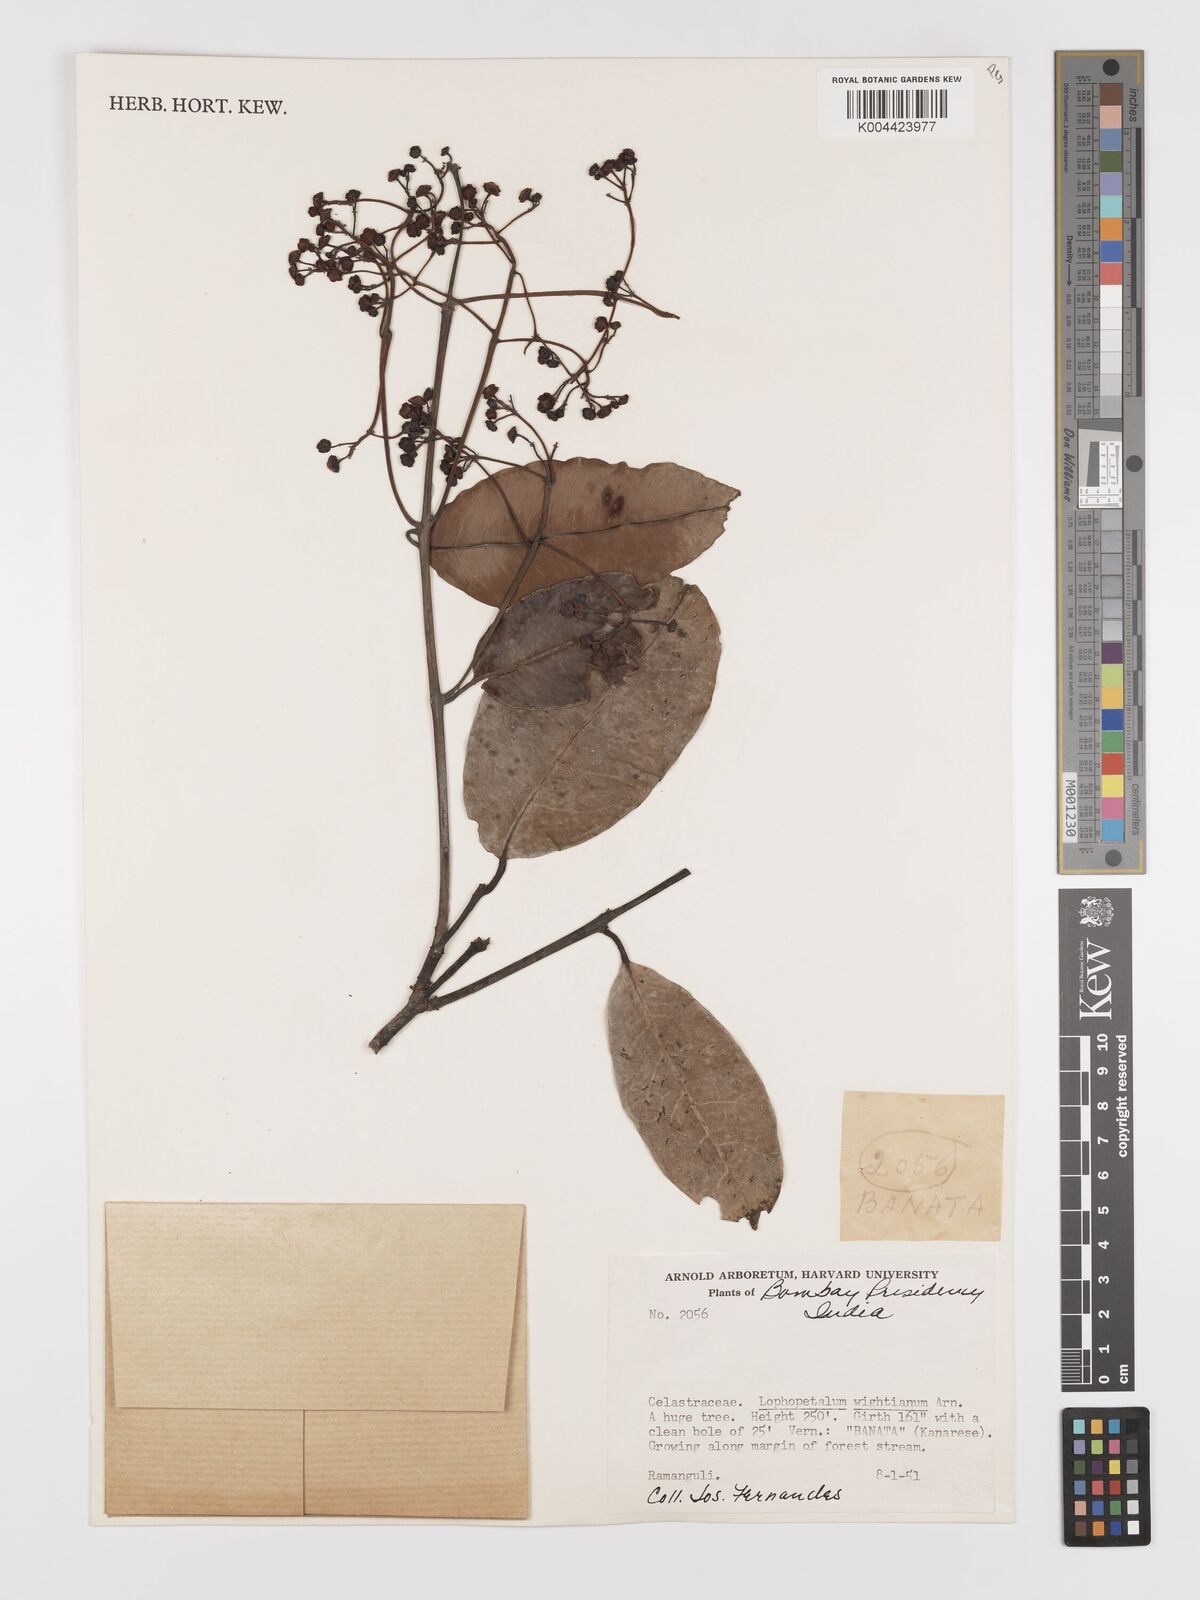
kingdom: Plantae
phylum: Tracheophyta
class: Magnoliopsida
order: Celastrales
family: Celastraceae
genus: Lophopetalum
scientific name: Lophopetalum wightianum
